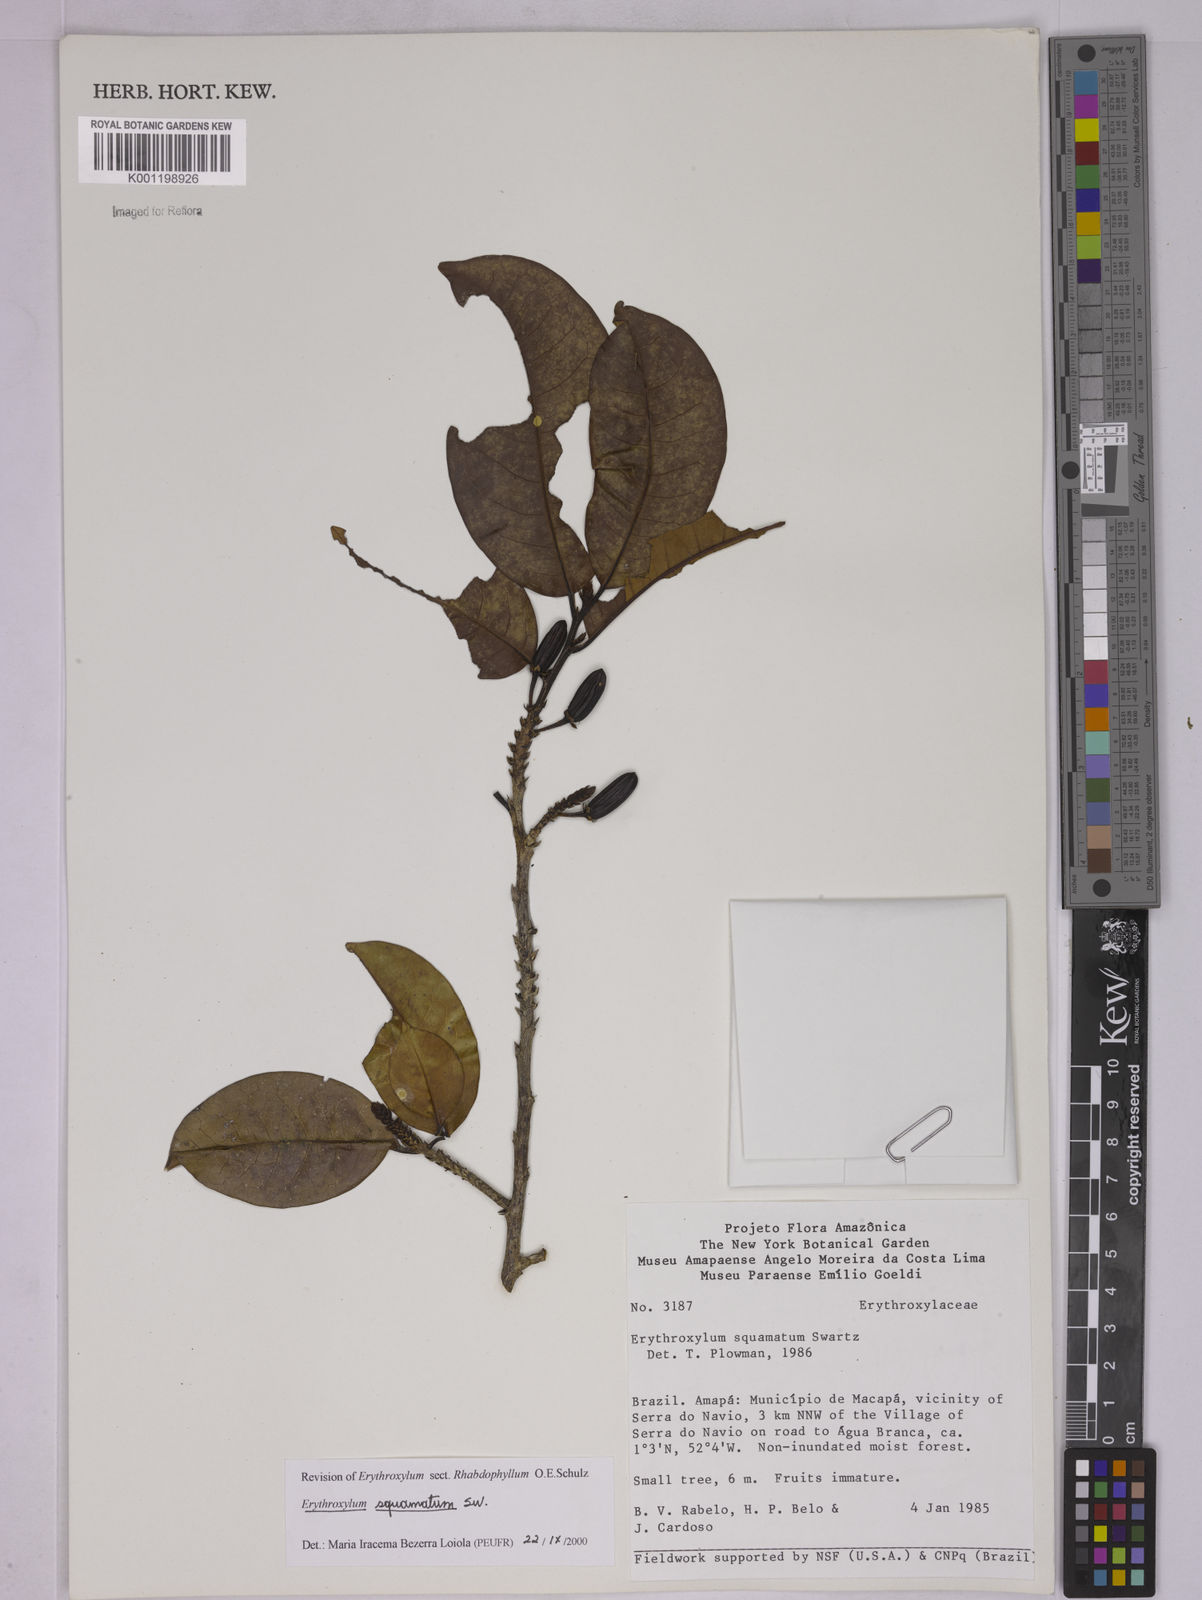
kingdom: Plantae
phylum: Tracheophyta
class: Magnoliopsida
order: Malpighiales
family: Erythroxylaceae
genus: Erythroxylum
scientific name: Erythroxylum squamatum
